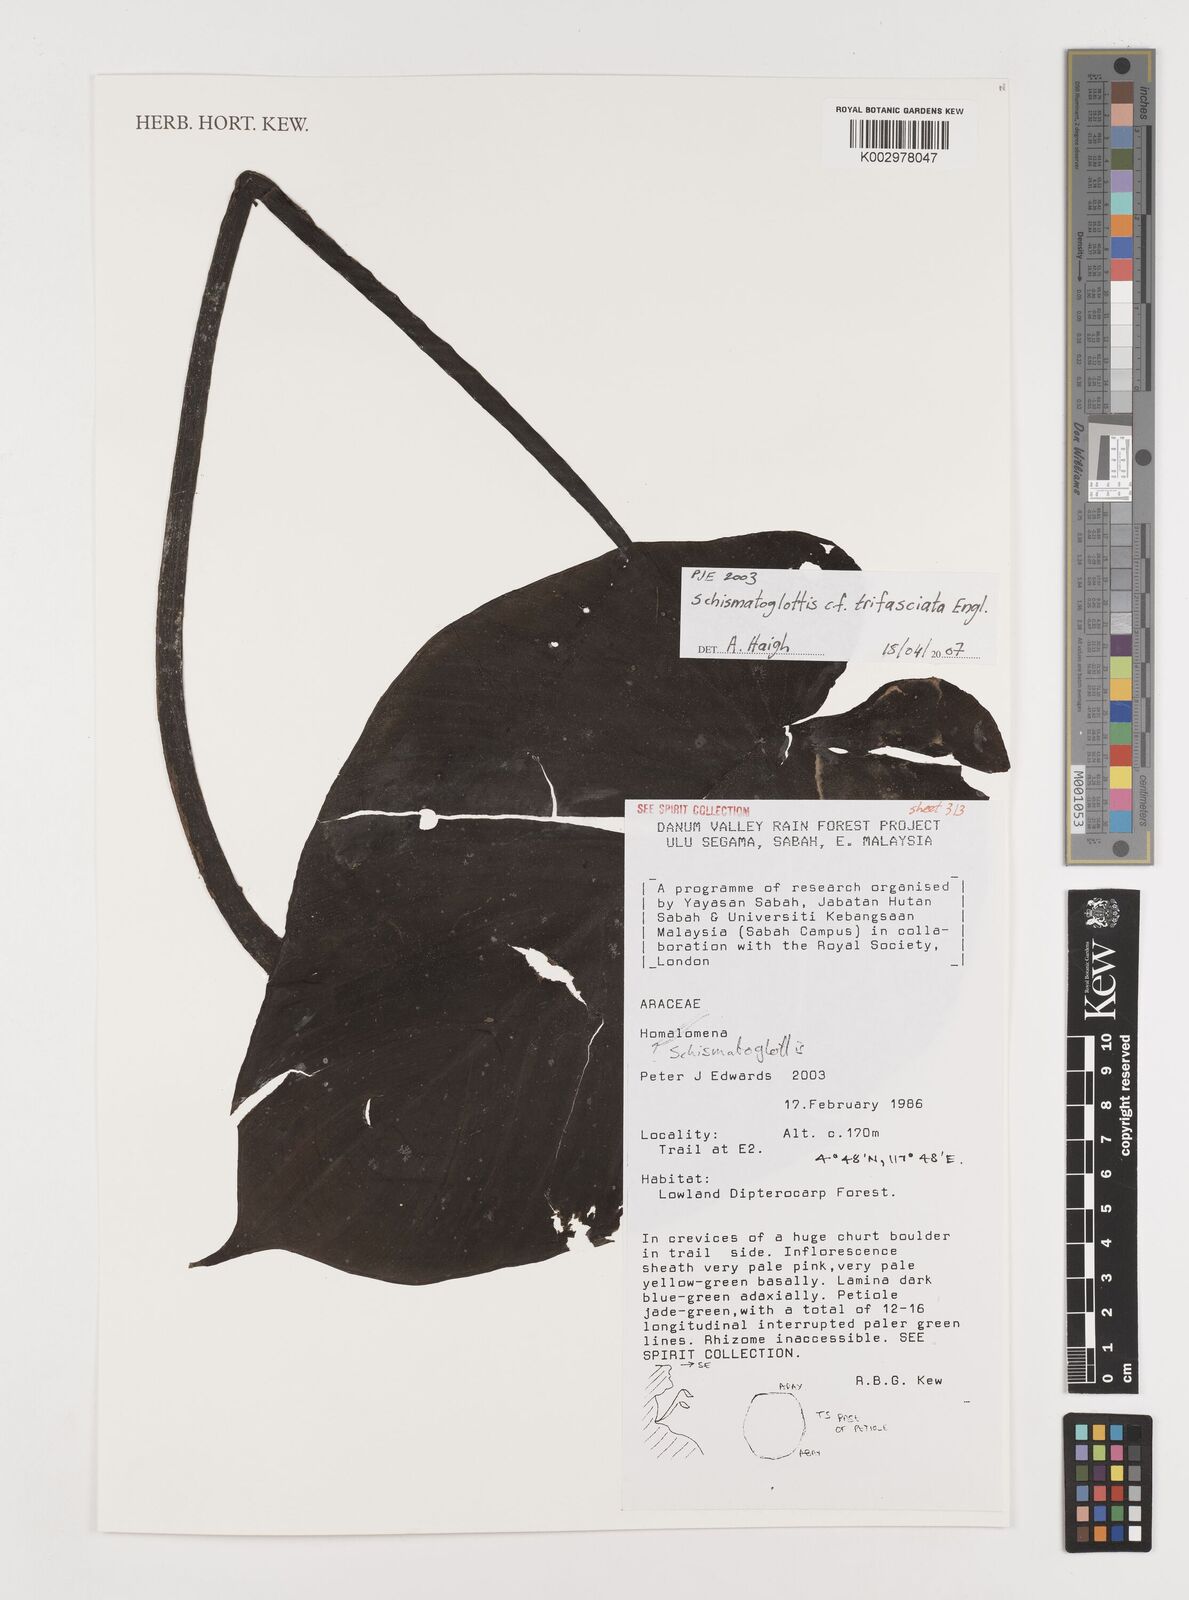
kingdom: Plantae
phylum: Tracheophyta
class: Liliopsida
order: Alismatales
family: Araceae
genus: Schismatoglottis
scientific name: Schismatoglottis trifasciata
